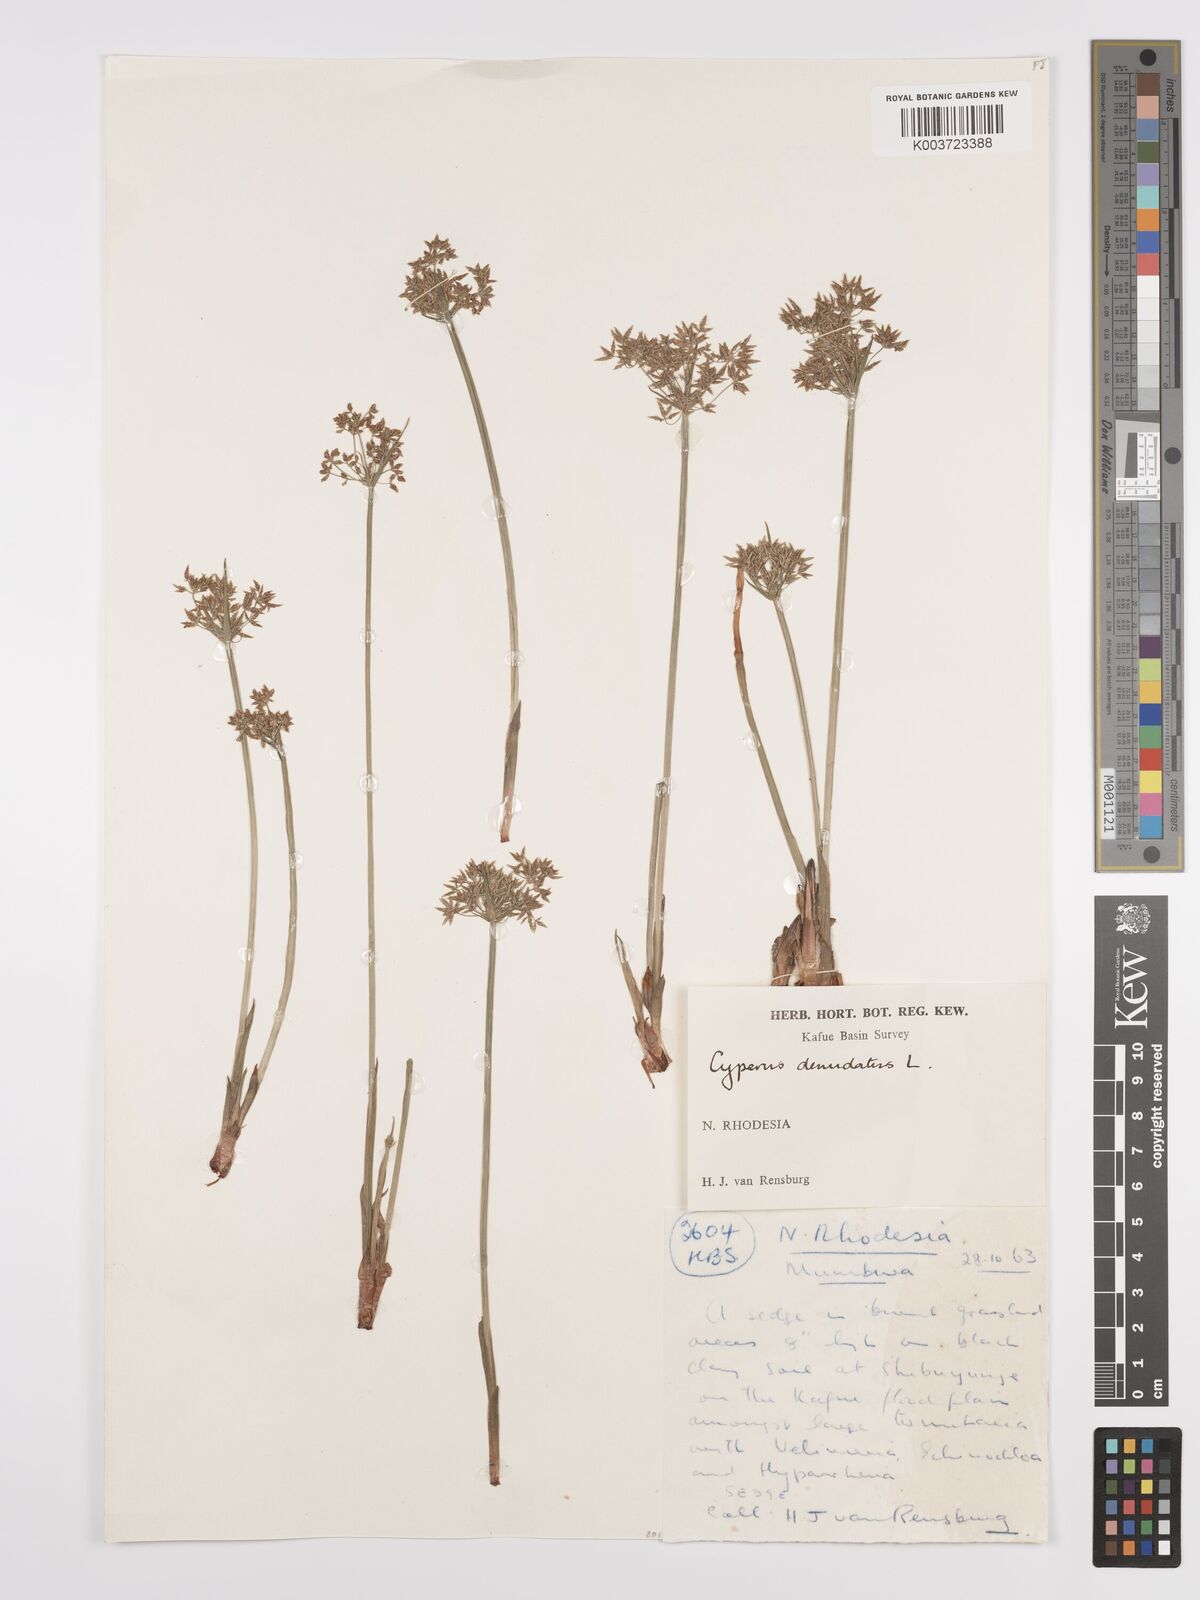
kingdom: Plantae
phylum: Tracheophyta
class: Liliopsida
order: Poales
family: Cyperaceae
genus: Cyperus
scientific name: Cyperus denudatus
